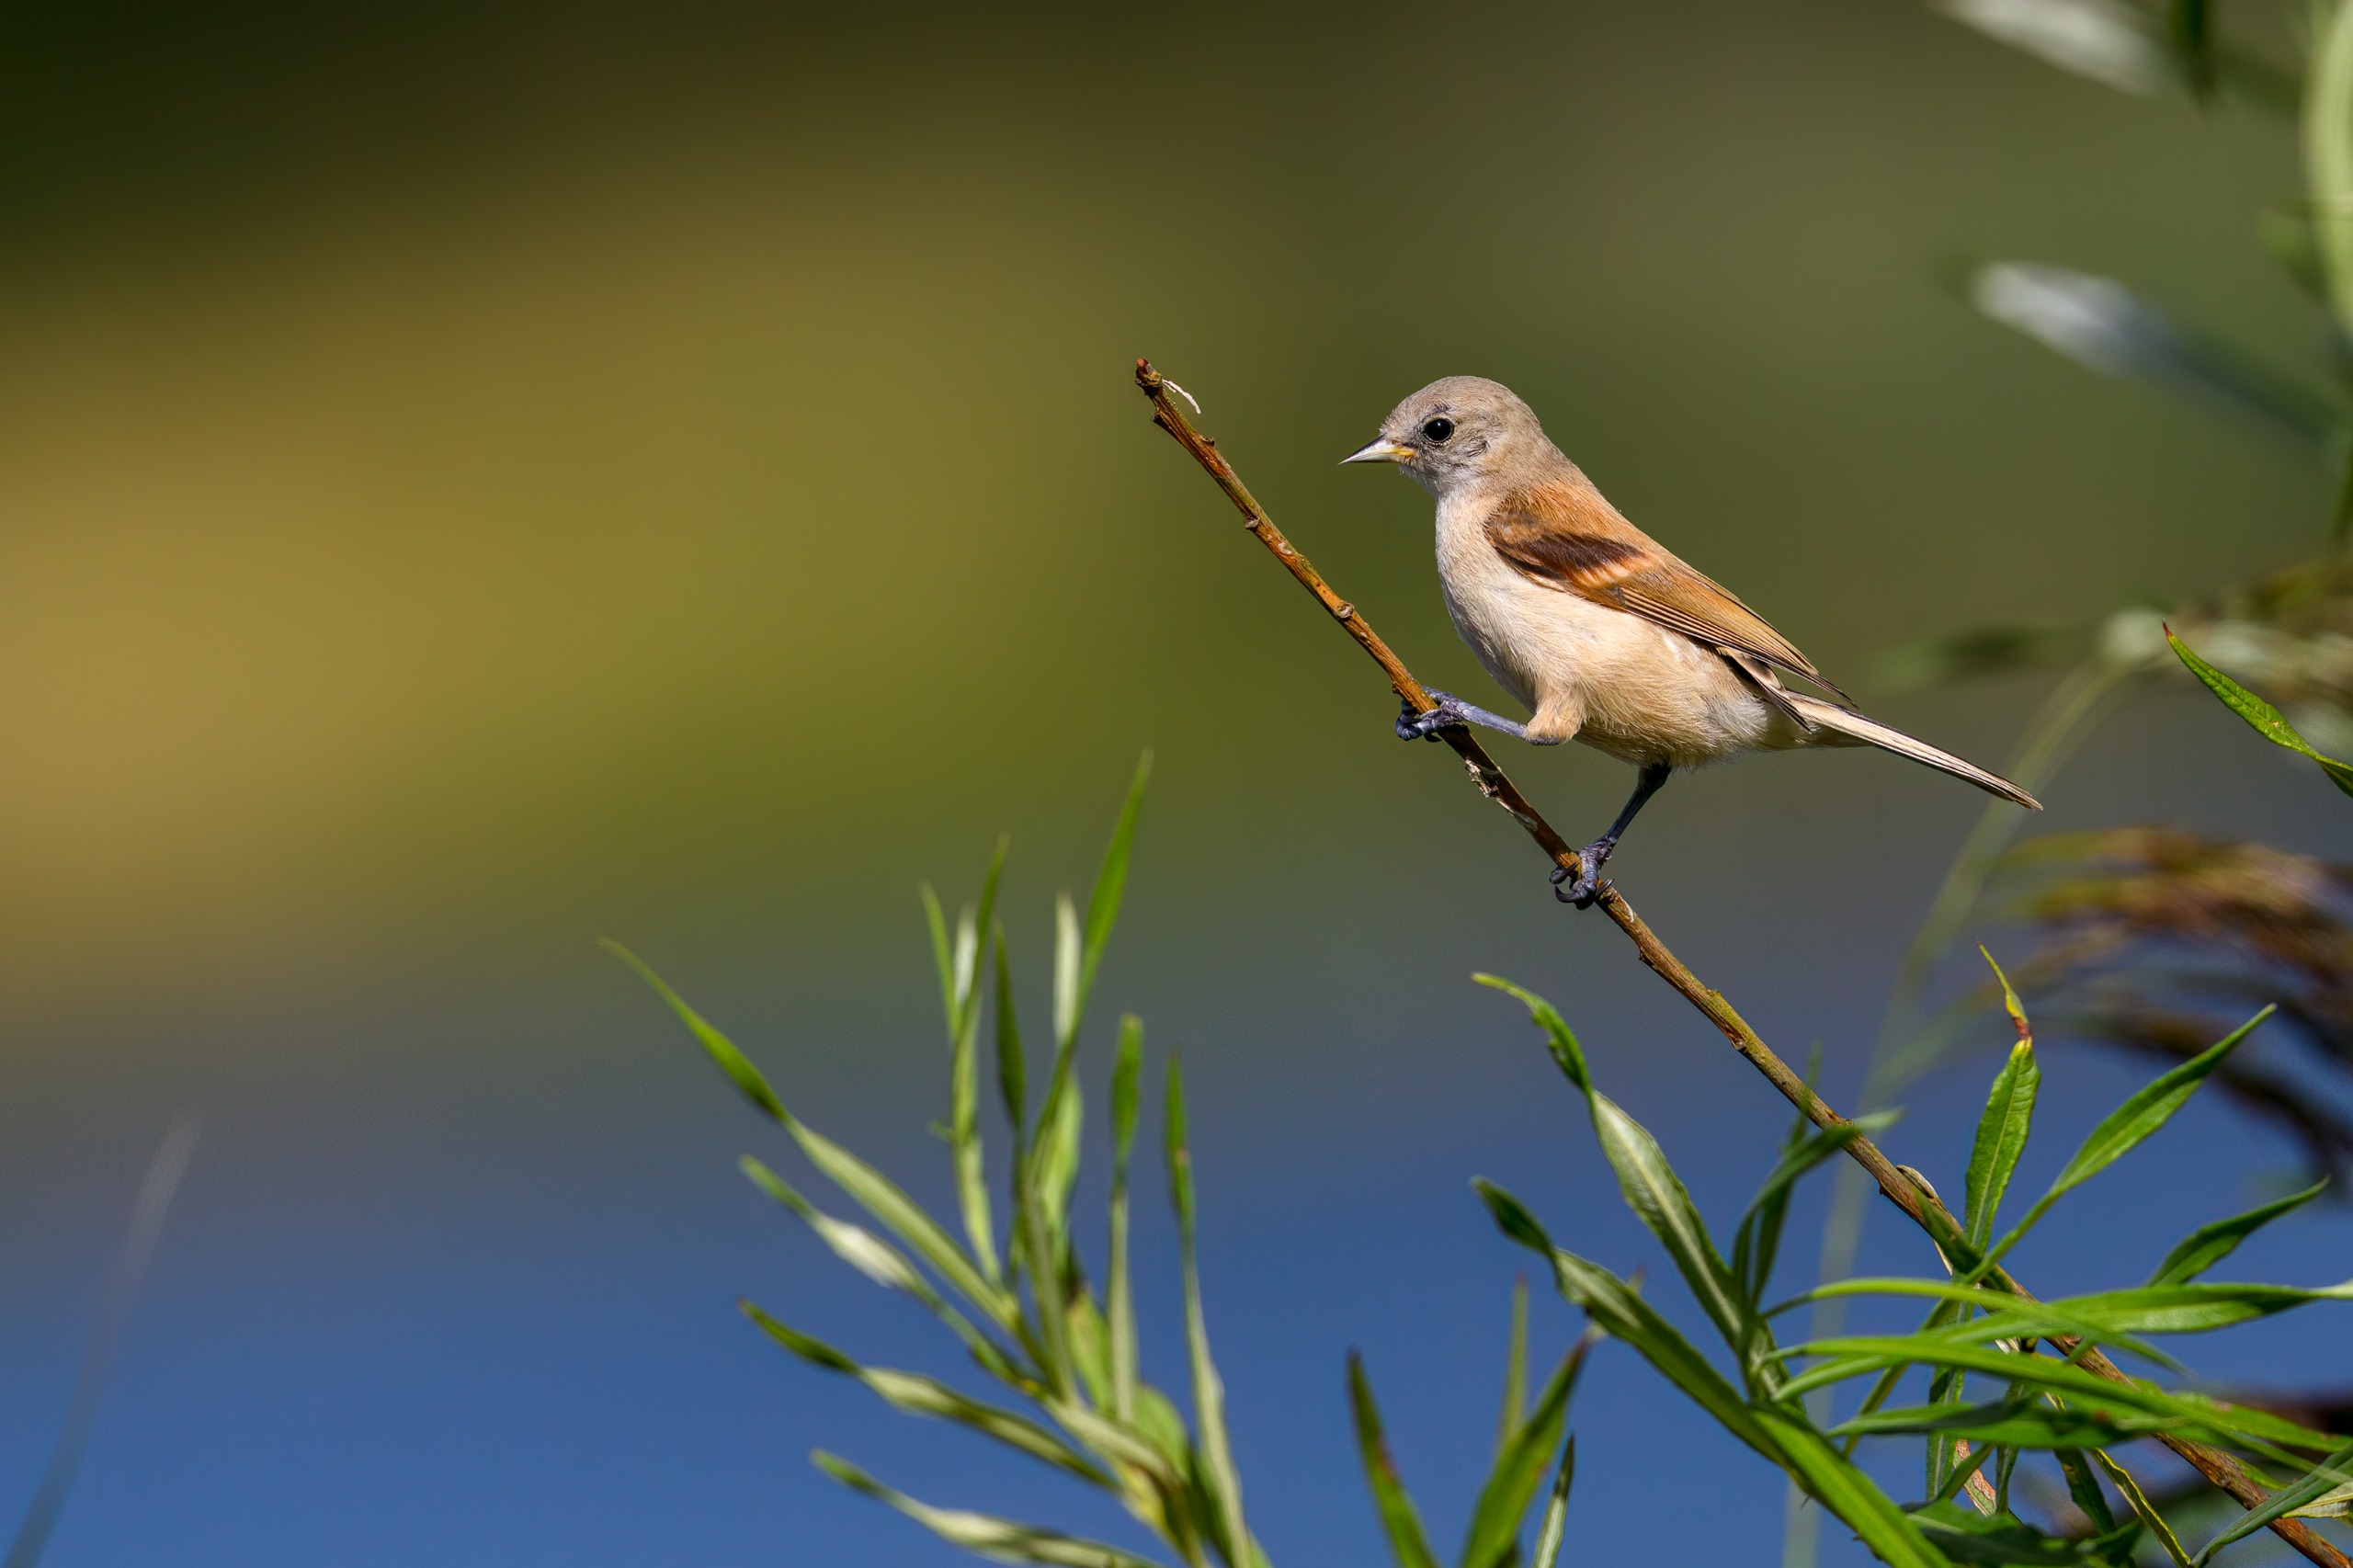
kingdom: Animalia
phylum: Chordata
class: Aves
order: Passeriformes
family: Remizidae
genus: Remiz
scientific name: Remiz pendulinus
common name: Pungmejse
